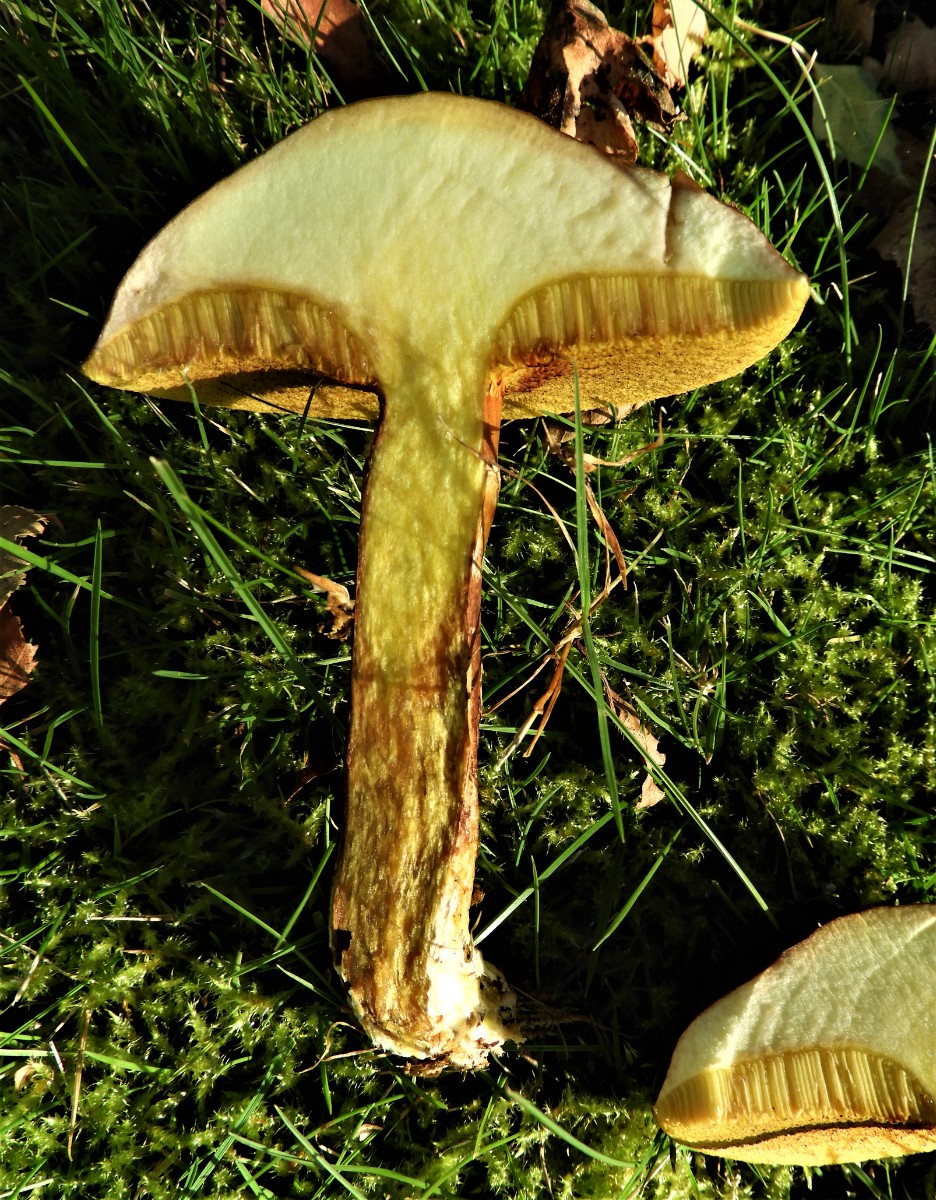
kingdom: Fungi
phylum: Basidiomycota
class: Agaricomycetes
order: Boletales
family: Suillaceae
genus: Suillus
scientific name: Suillus grevillei
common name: lærke-slimrørhat
